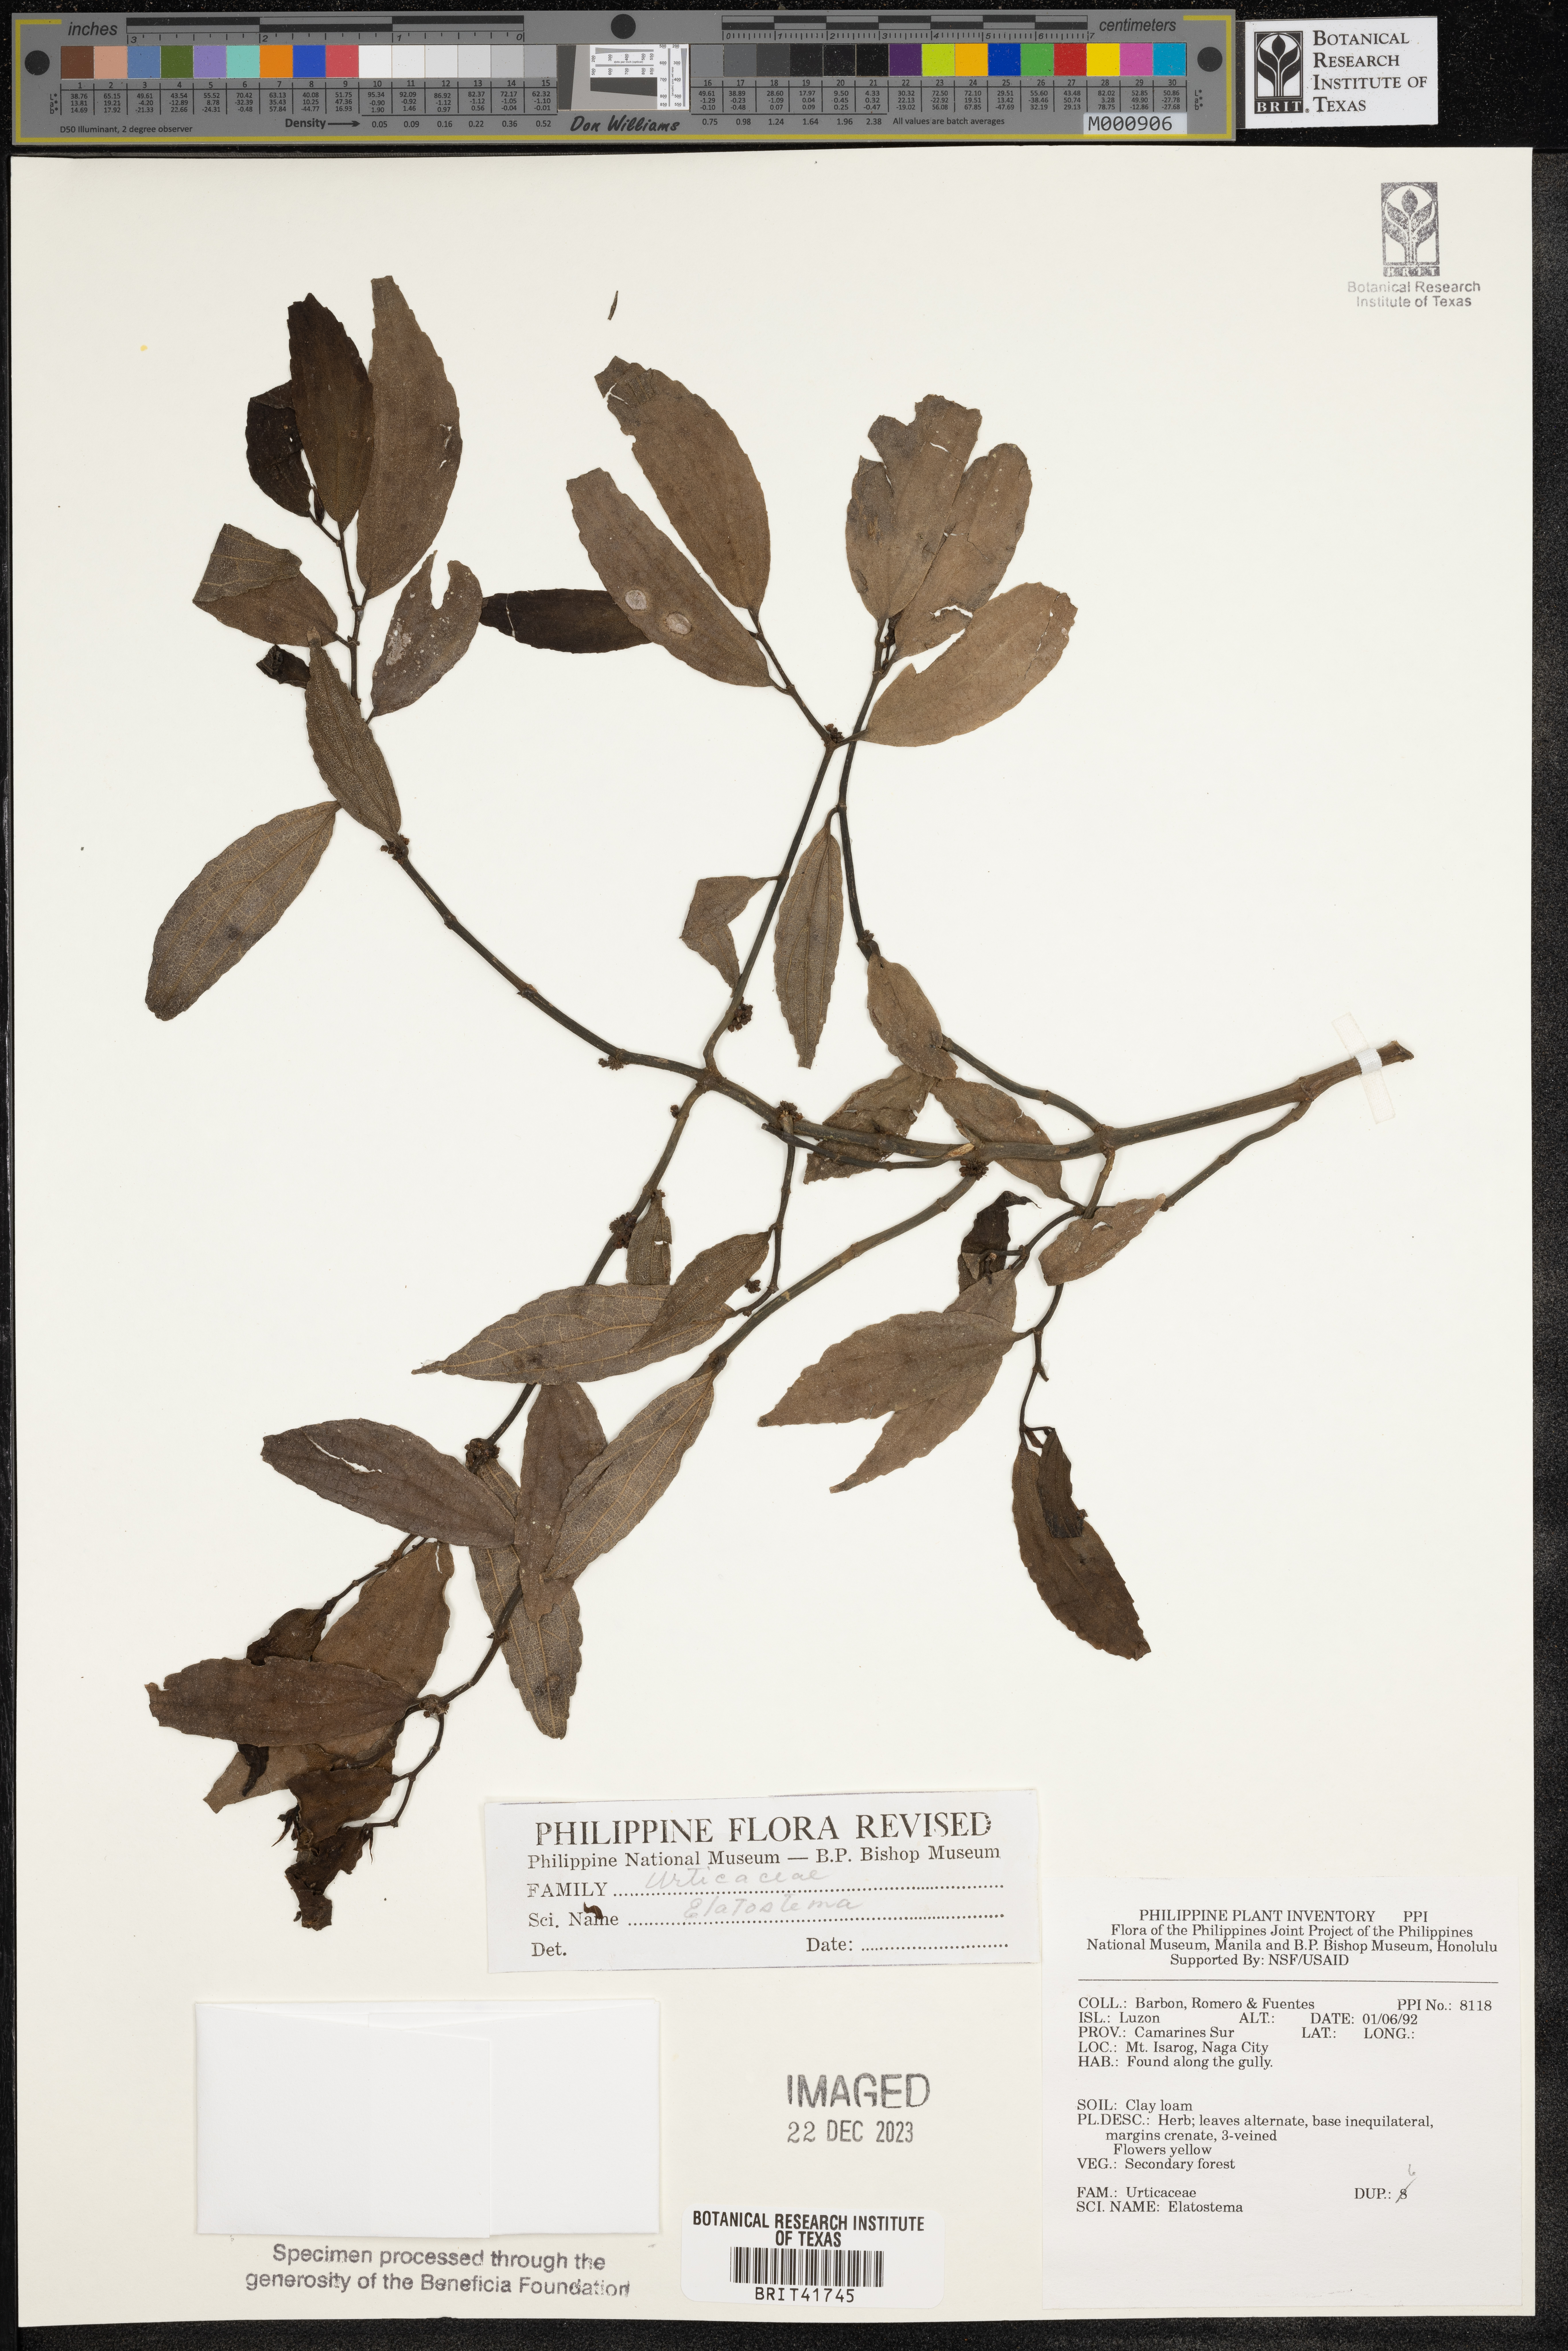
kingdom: Plantae
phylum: Tracheophyta
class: Magnoliopsida
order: Rosales
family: Urticaceae
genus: Elatostema
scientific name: Elatostema
